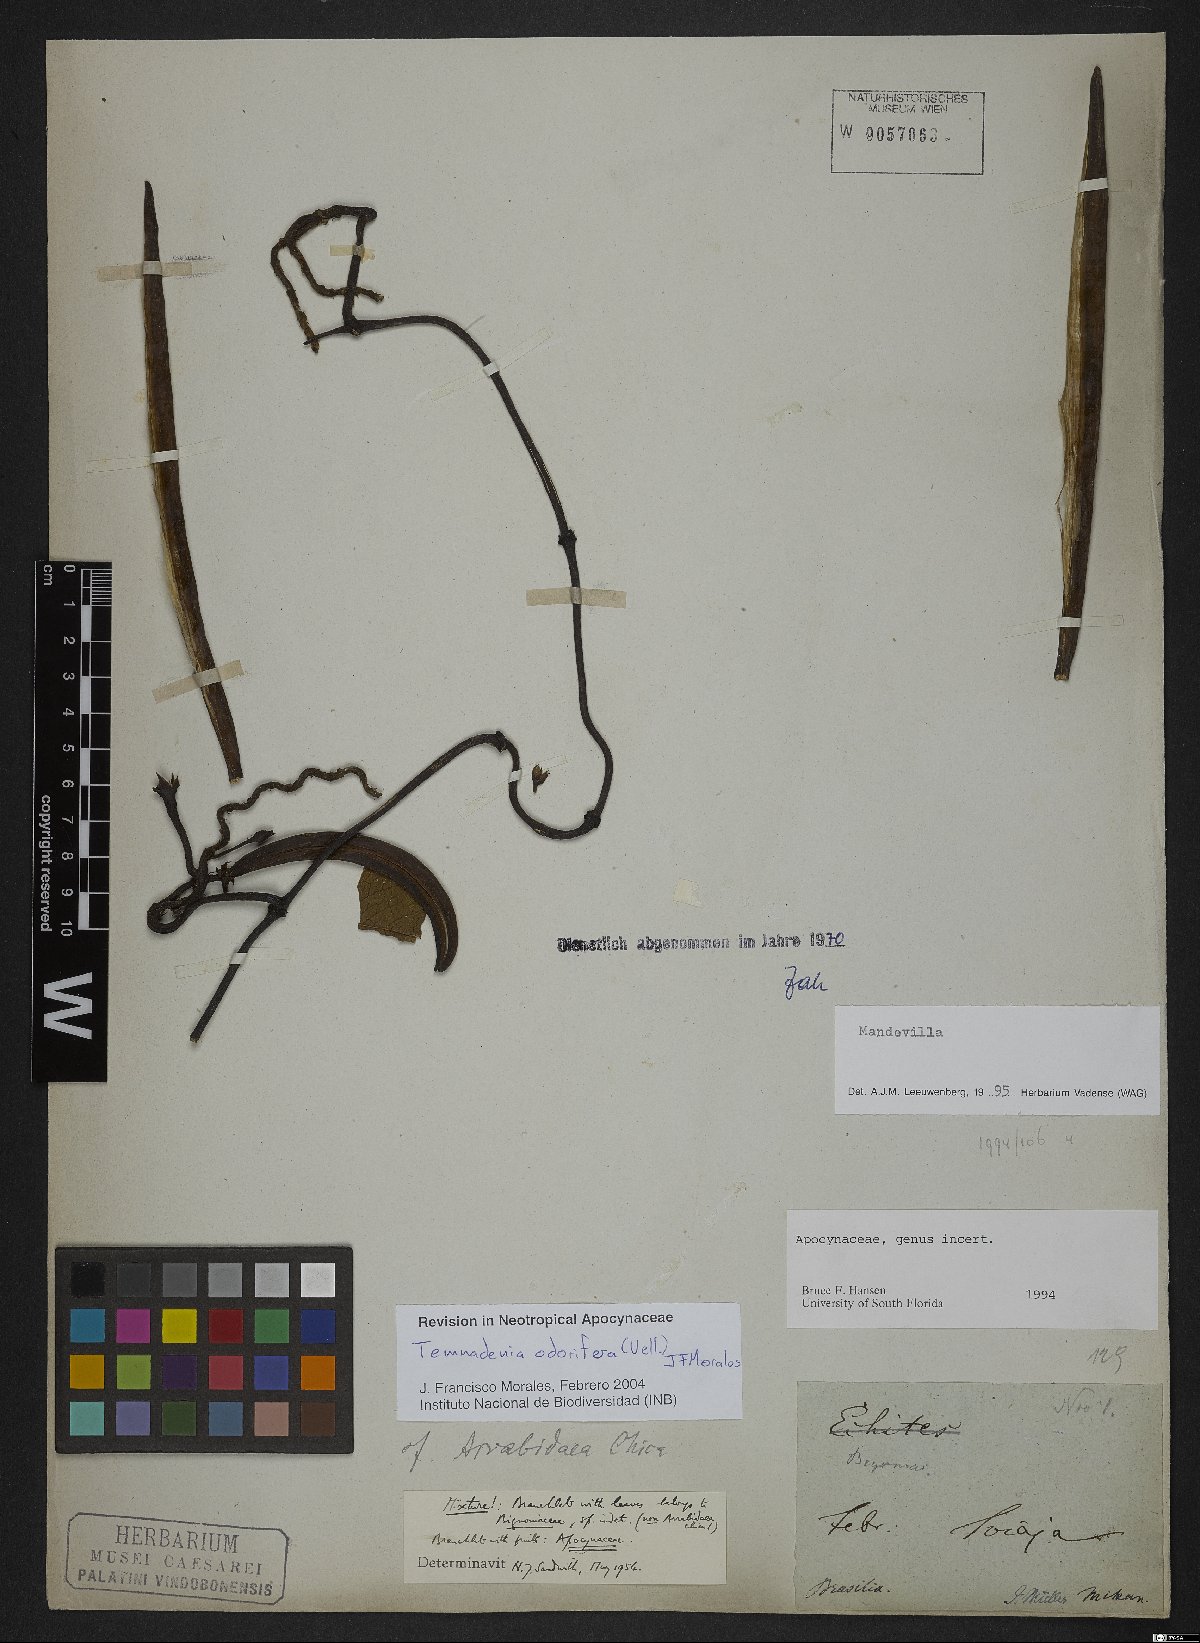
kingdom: Plantae
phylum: Tracheophyta
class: Magnoliopsida
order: Gentianales
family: Apocynaceae
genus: Temnadenia
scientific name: Temnadenia odorifera
